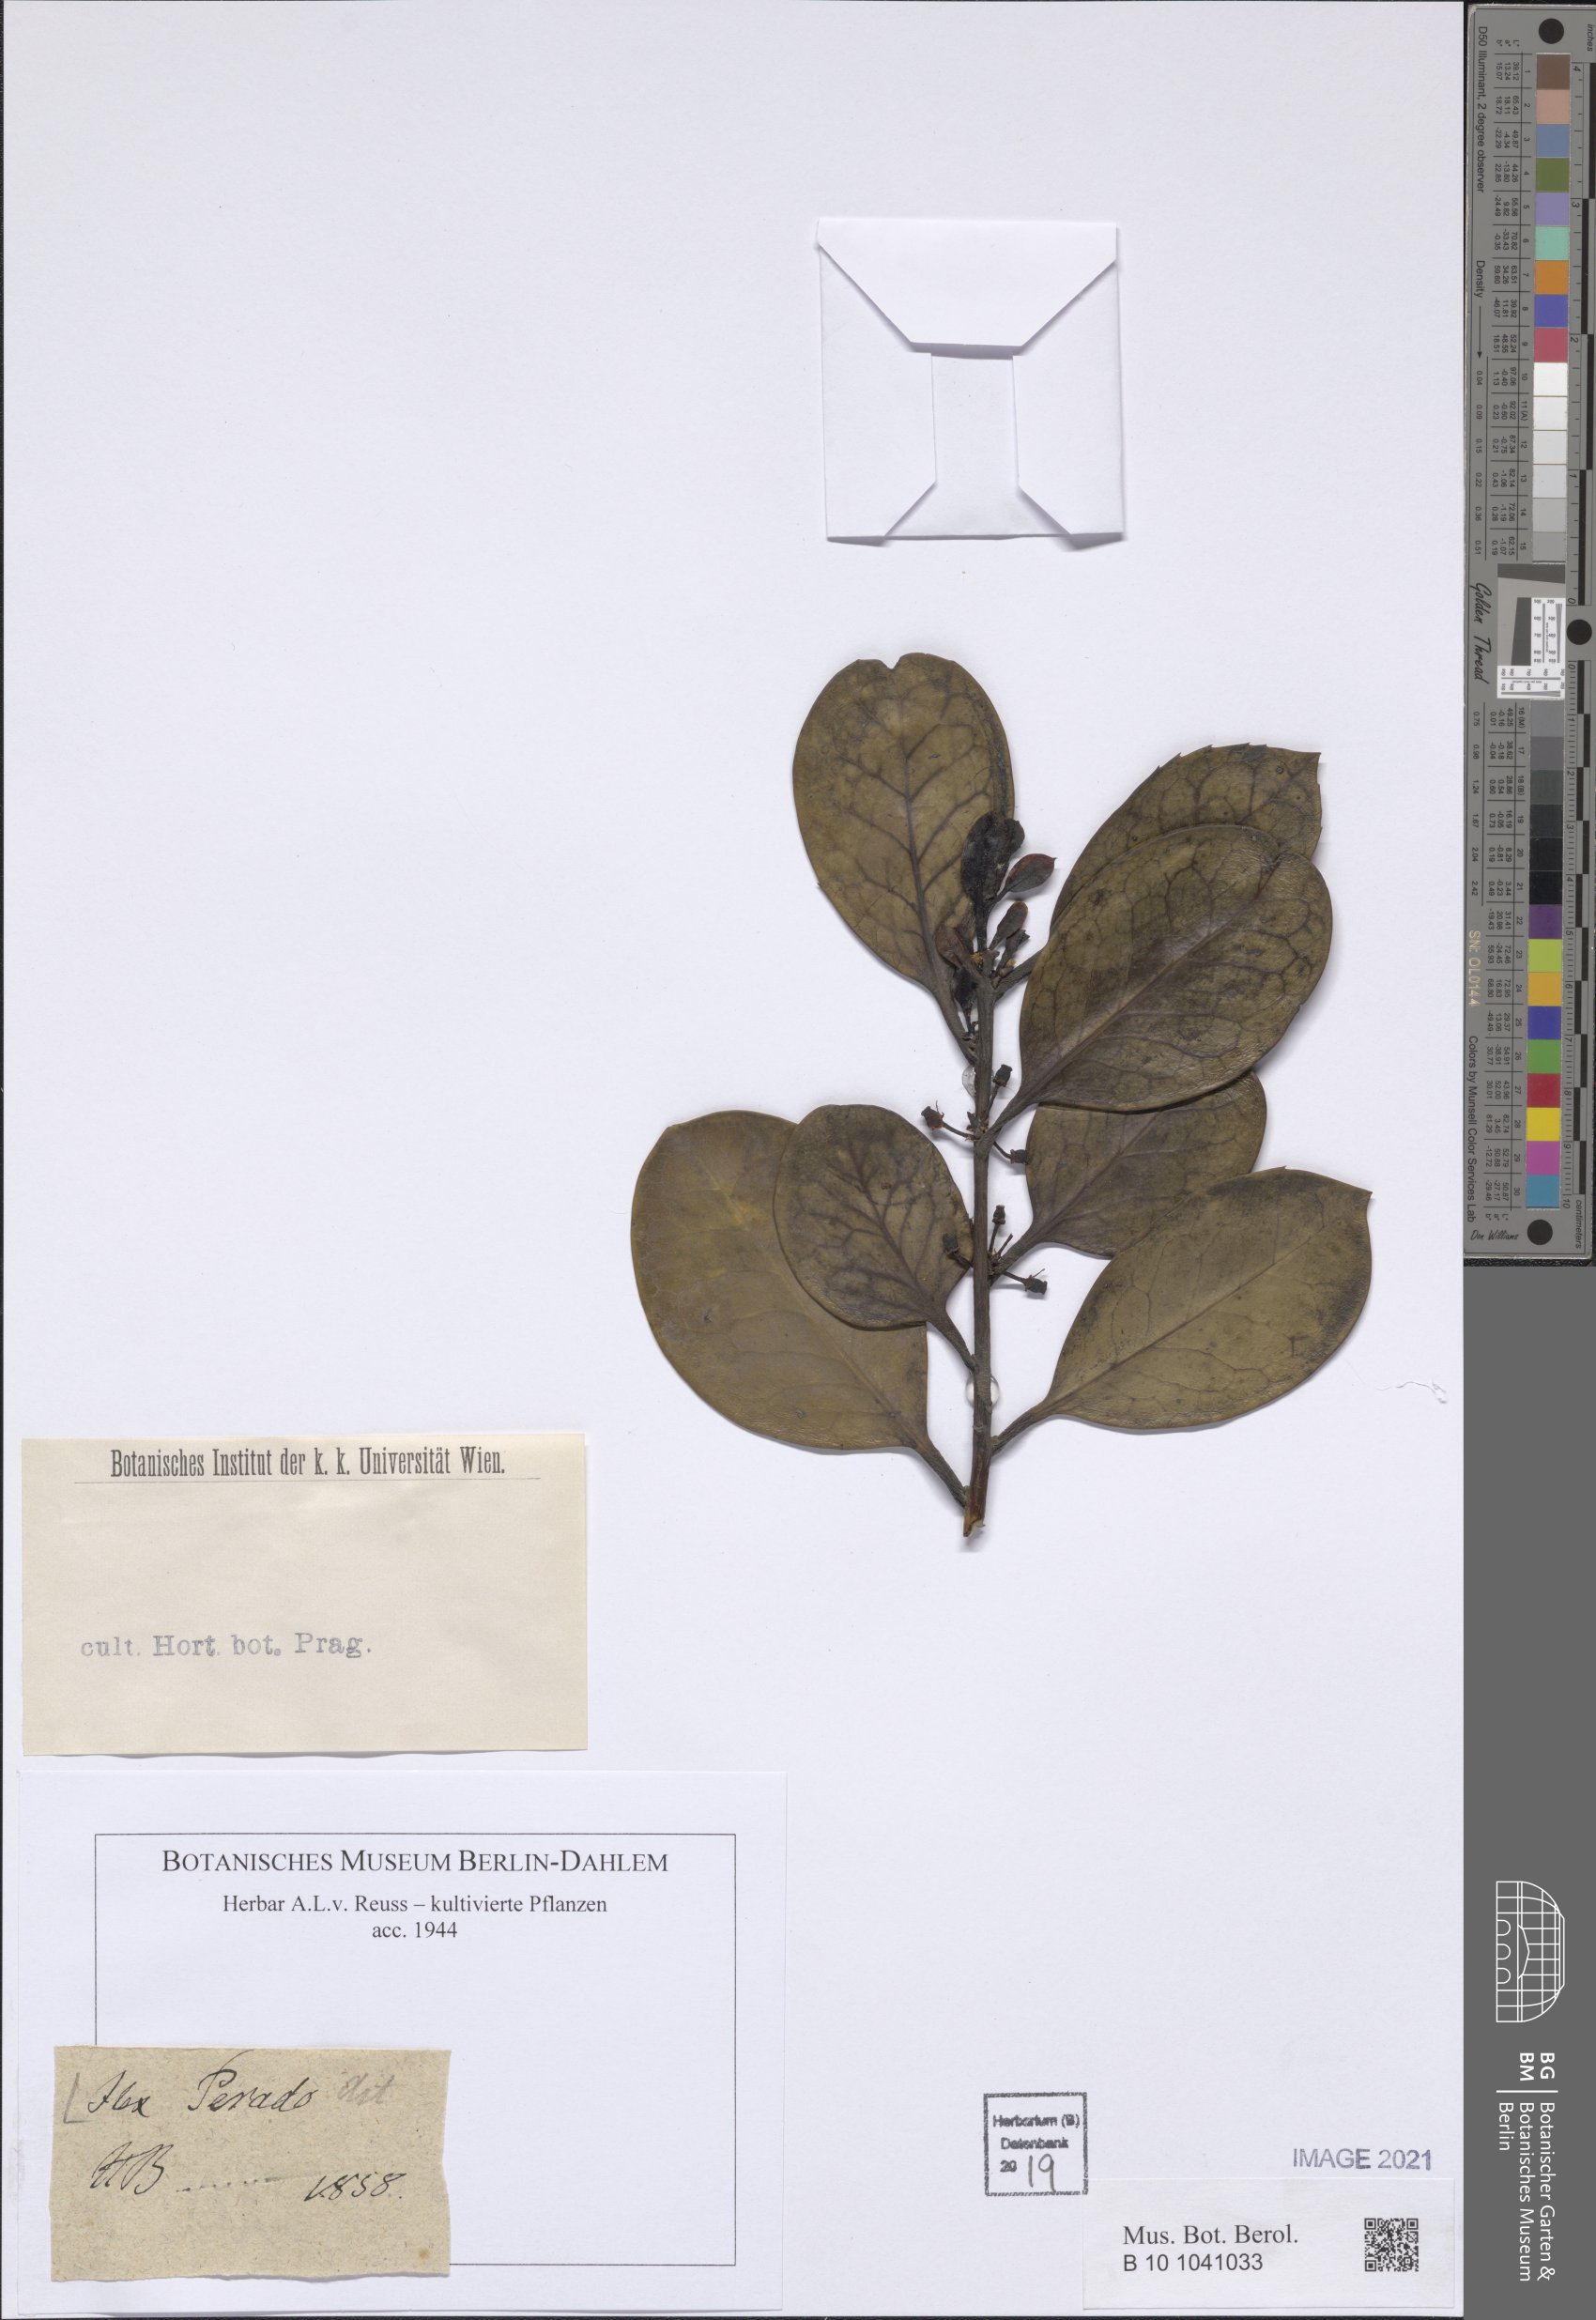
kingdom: Plantae
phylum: Tracheophyta
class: Magnoliopsida
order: Aquifoliales
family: Aquifoliaceae
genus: Ilex
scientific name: Ilex perado
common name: Madeira holly
